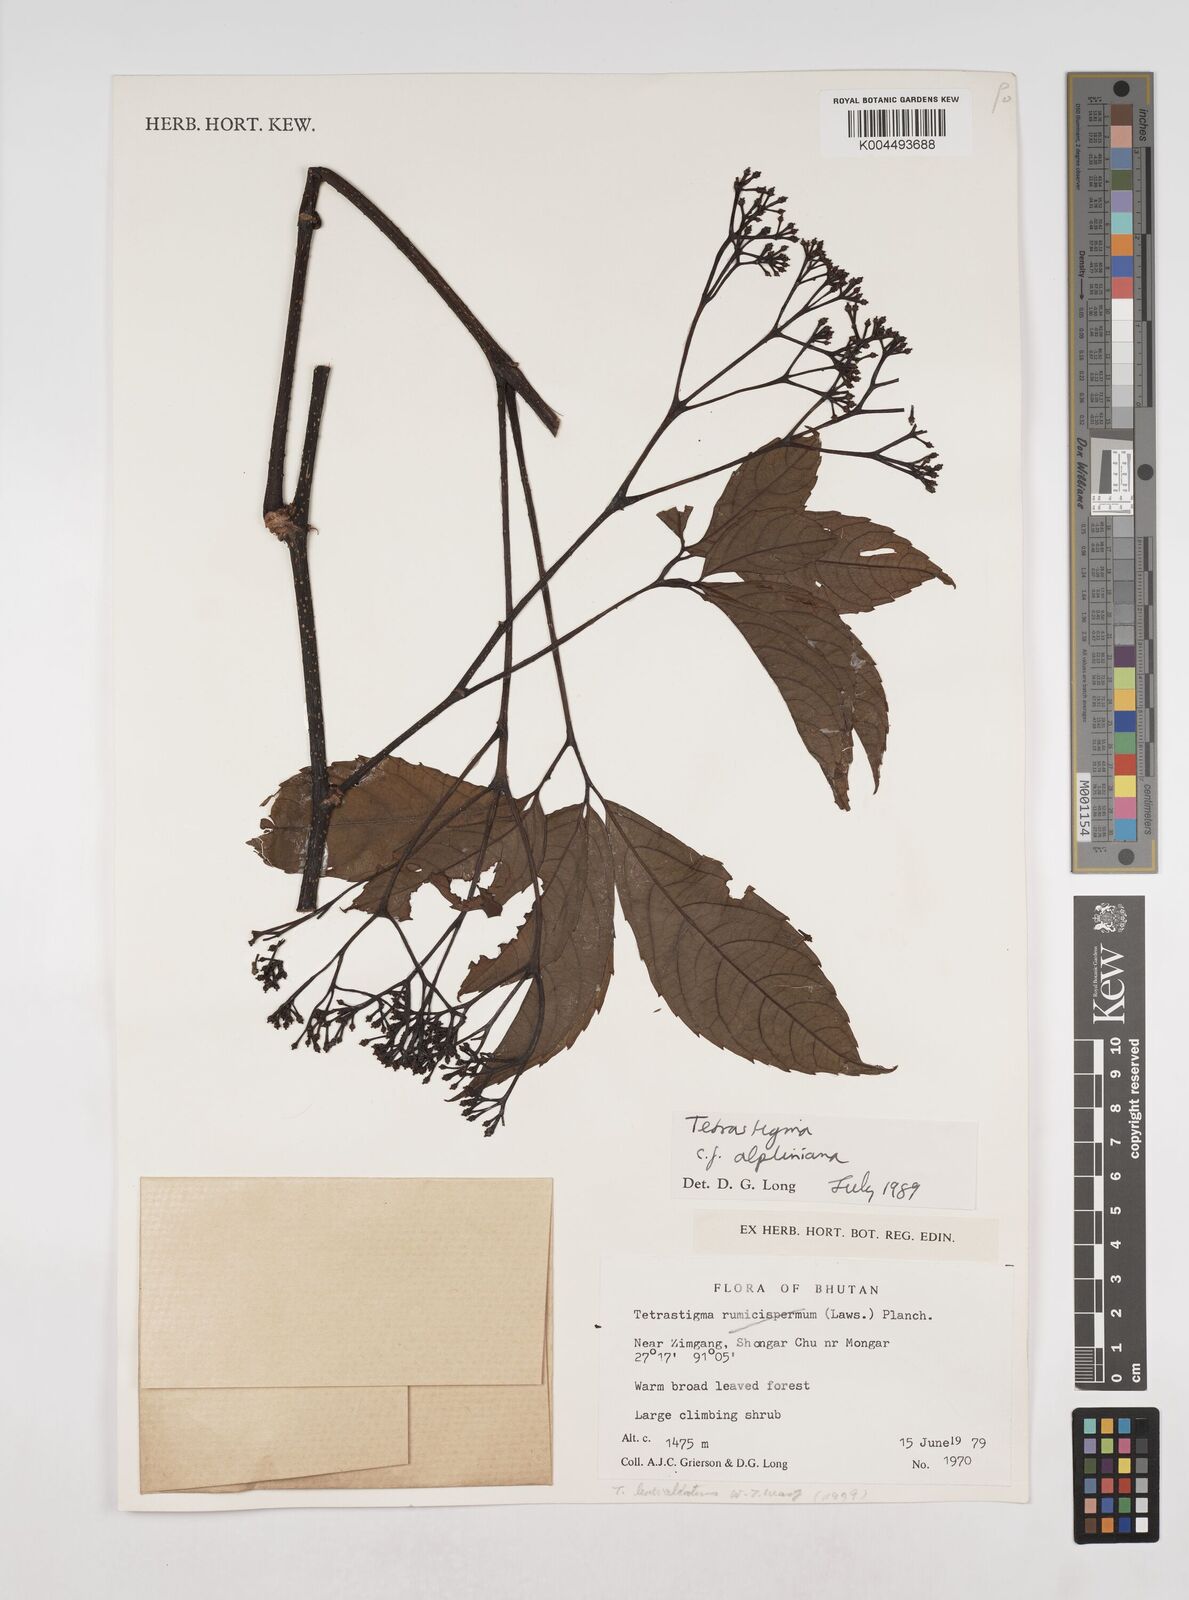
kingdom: Plantae
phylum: Tracheophyta
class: Magnoliopsida
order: Vitales
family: Vitaceae
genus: Tetrastigma
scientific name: Tetrastigma
